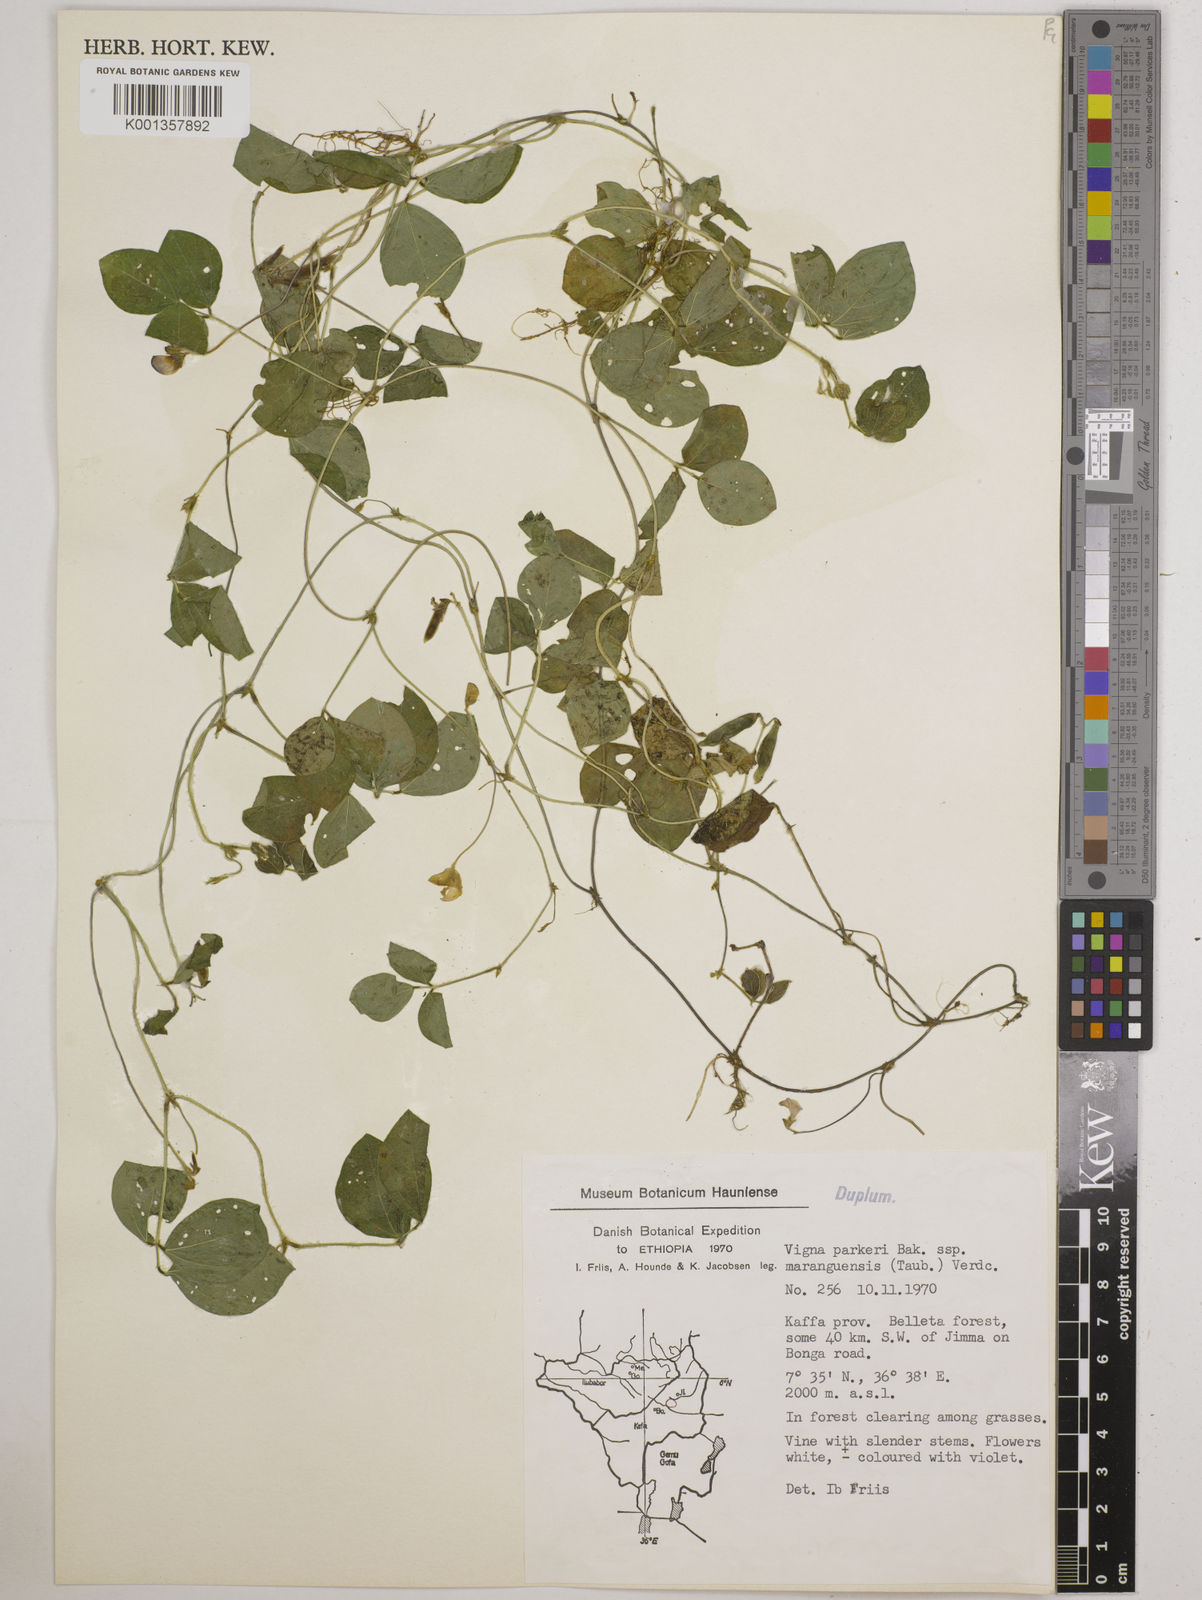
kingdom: Plantae
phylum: Tracheophyta
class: Magnoliopsida
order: Fabales
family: Fabaceae
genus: Vigna
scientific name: Vigna
